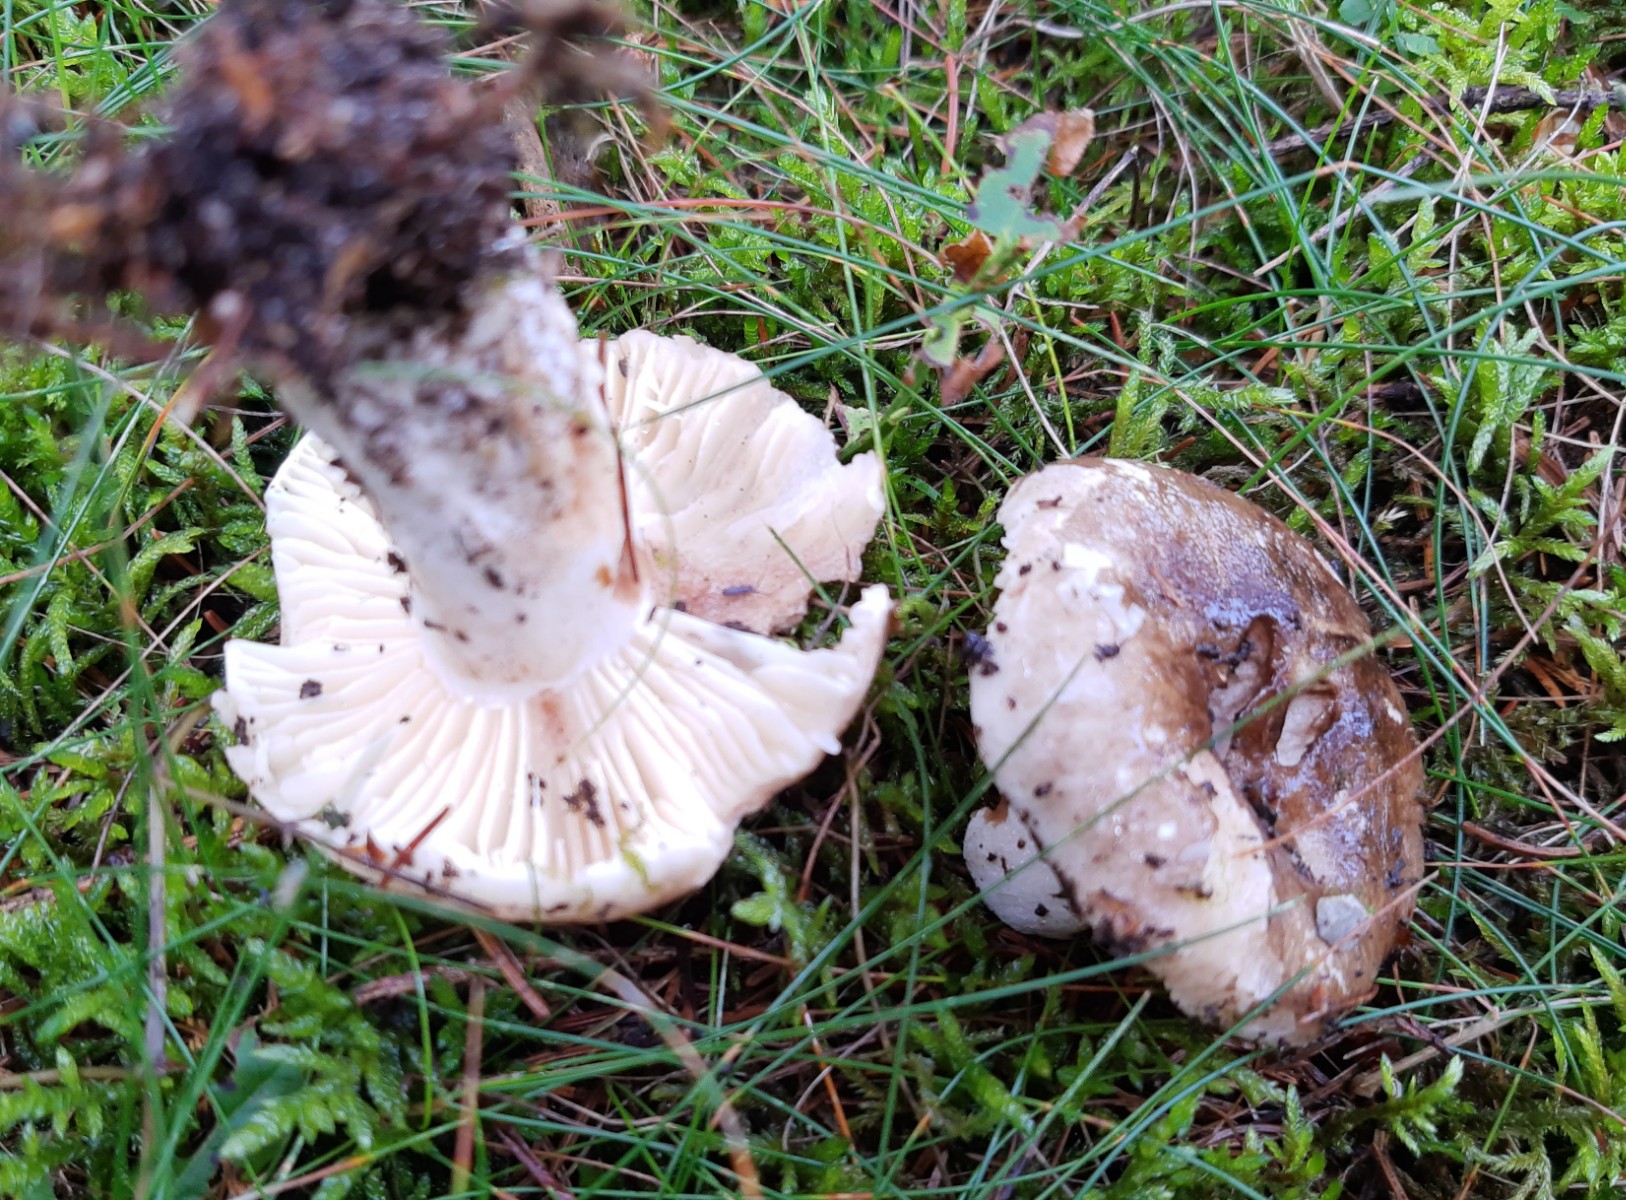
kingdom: Fungi
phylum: Basidiomycota
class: Agaricomycetes
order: Russulales
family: Russulaceae
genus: Russula
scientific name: Russula adusta
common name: sværtende skørhat
